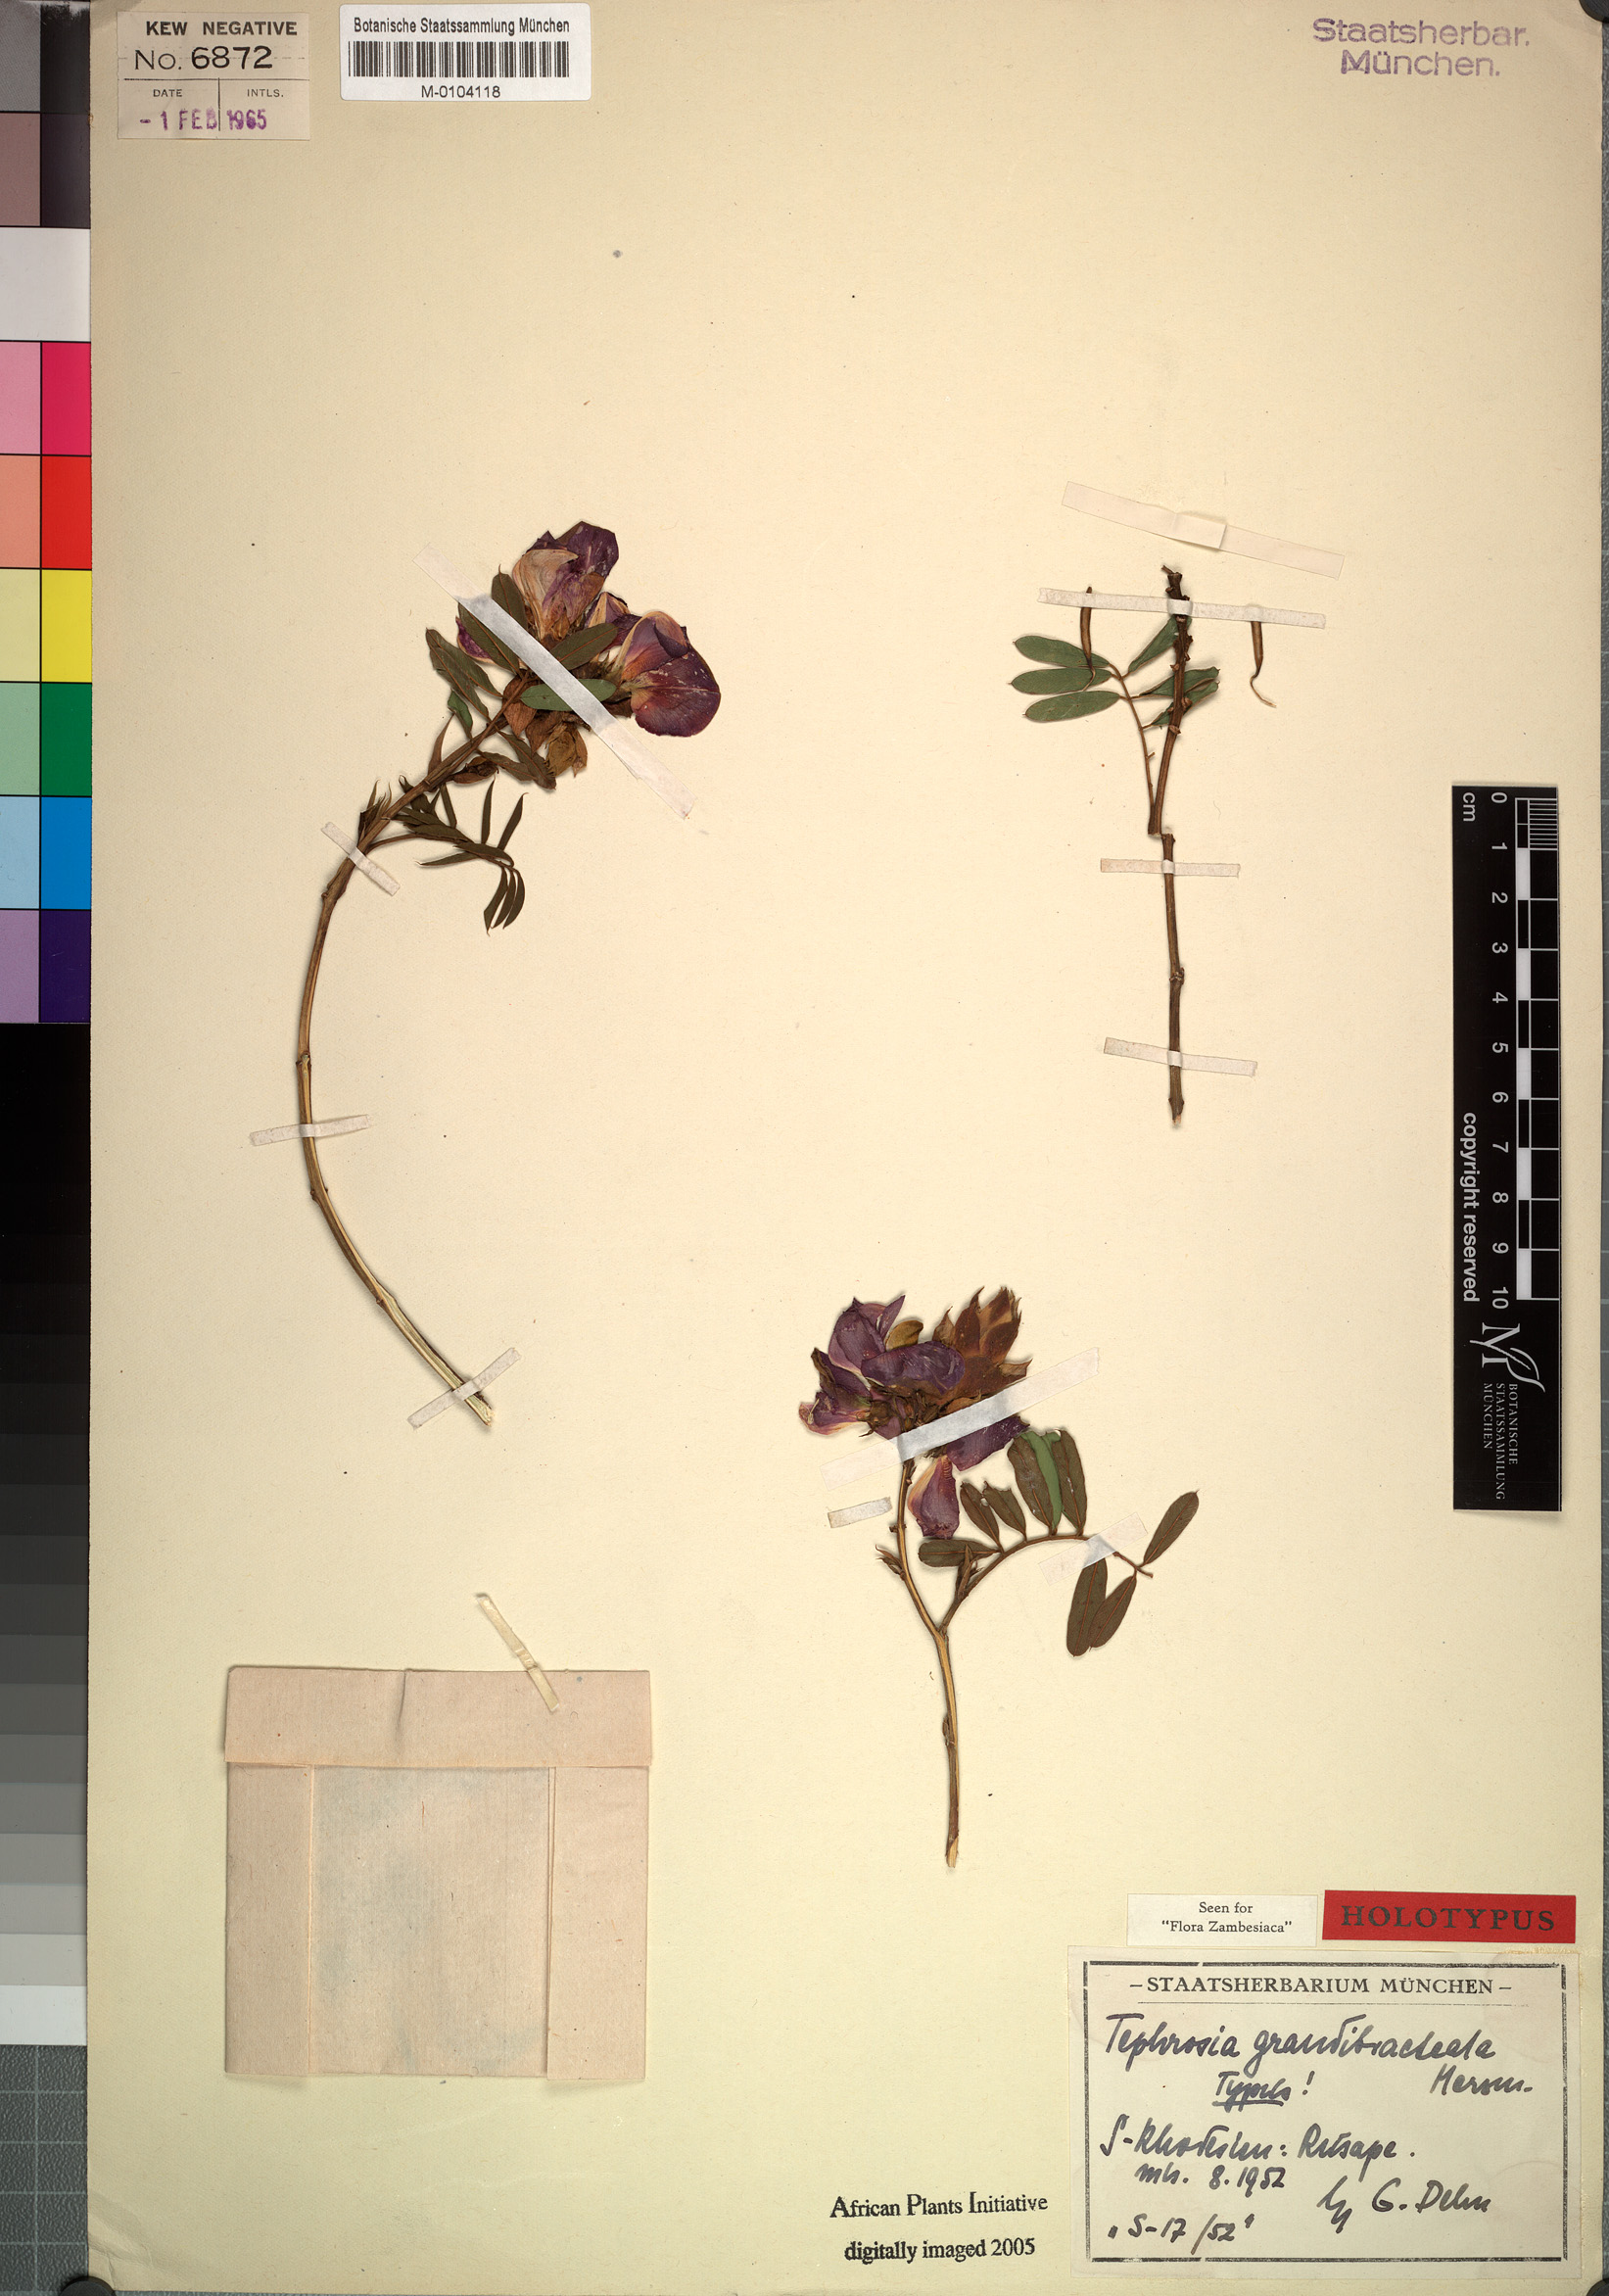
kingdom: Plantae
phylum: Tracheophyta
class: Magnoliopsida
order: Fabales
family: Fabaceae
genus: Tephrosia
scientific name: Tephrosia grandibracteata
